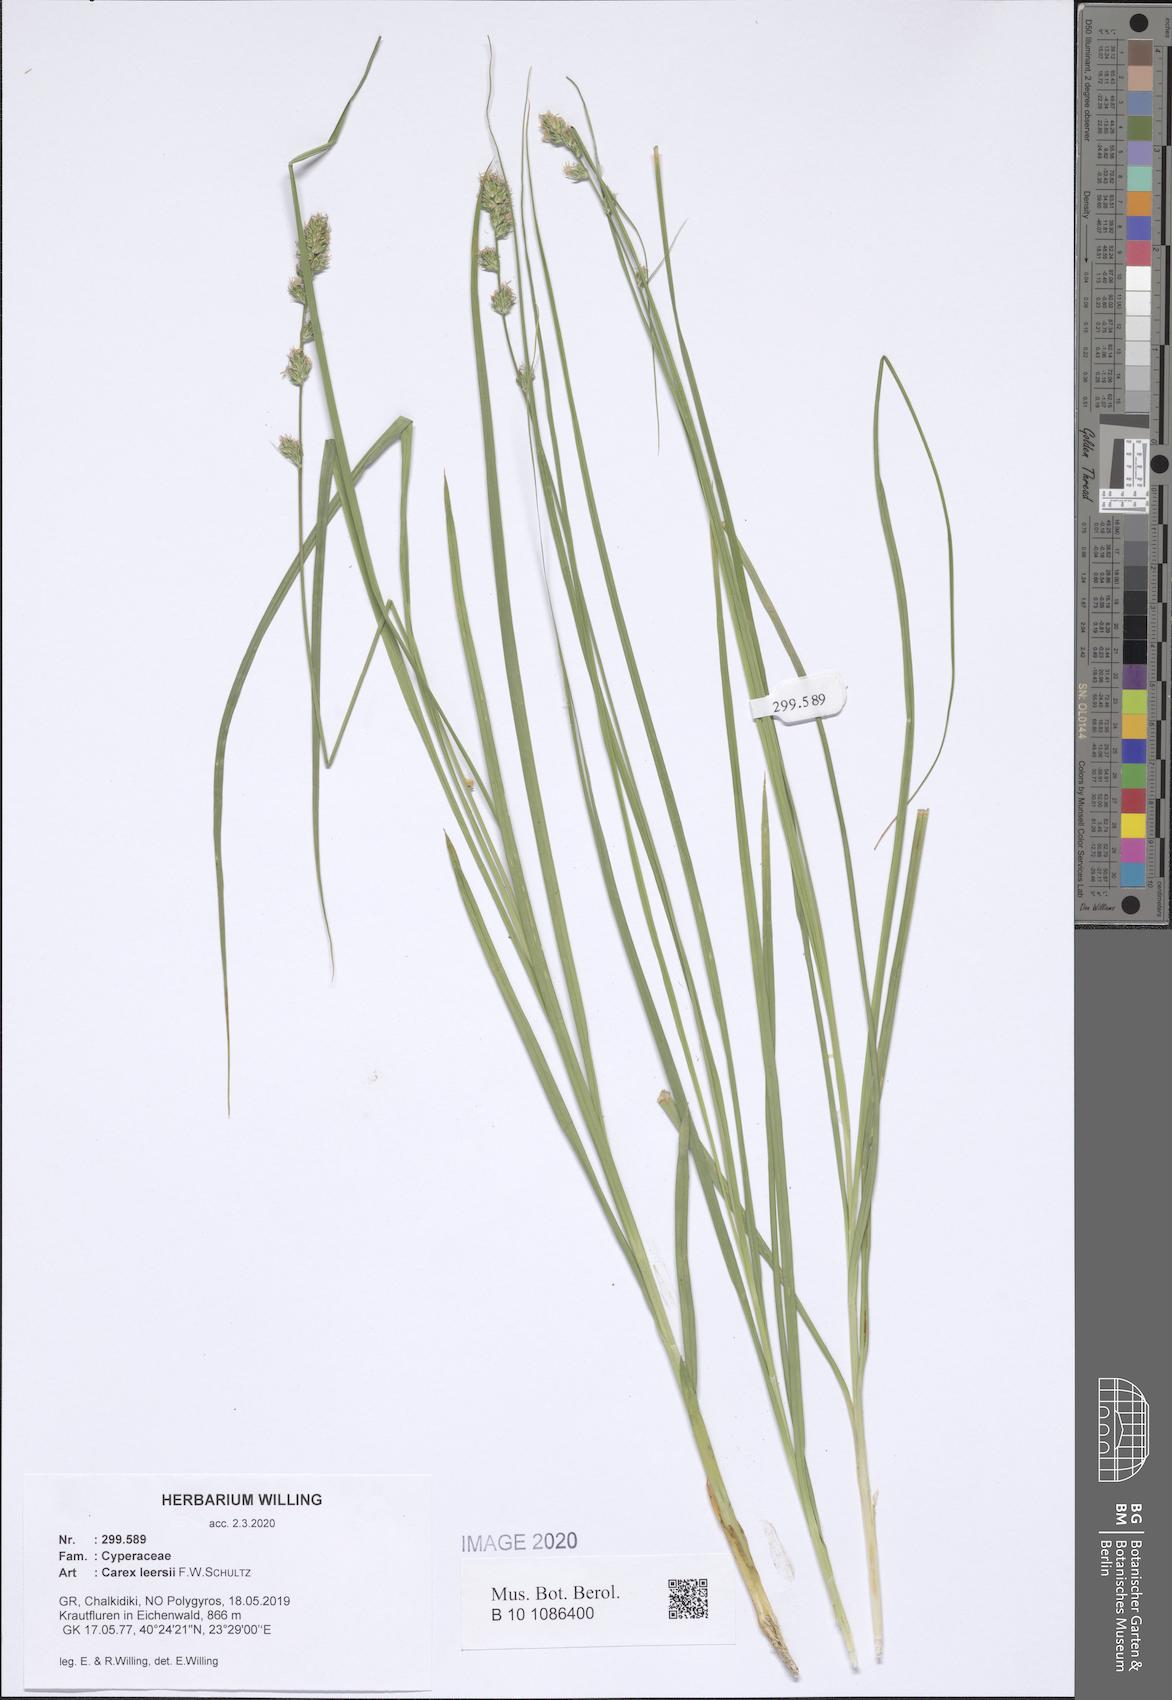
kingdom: Plantae
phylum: Tracheophyta
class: Liliopsida
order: Poales
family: Cyperaceae
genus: Carex
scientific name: Carex leersii
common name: Leers' sedge
